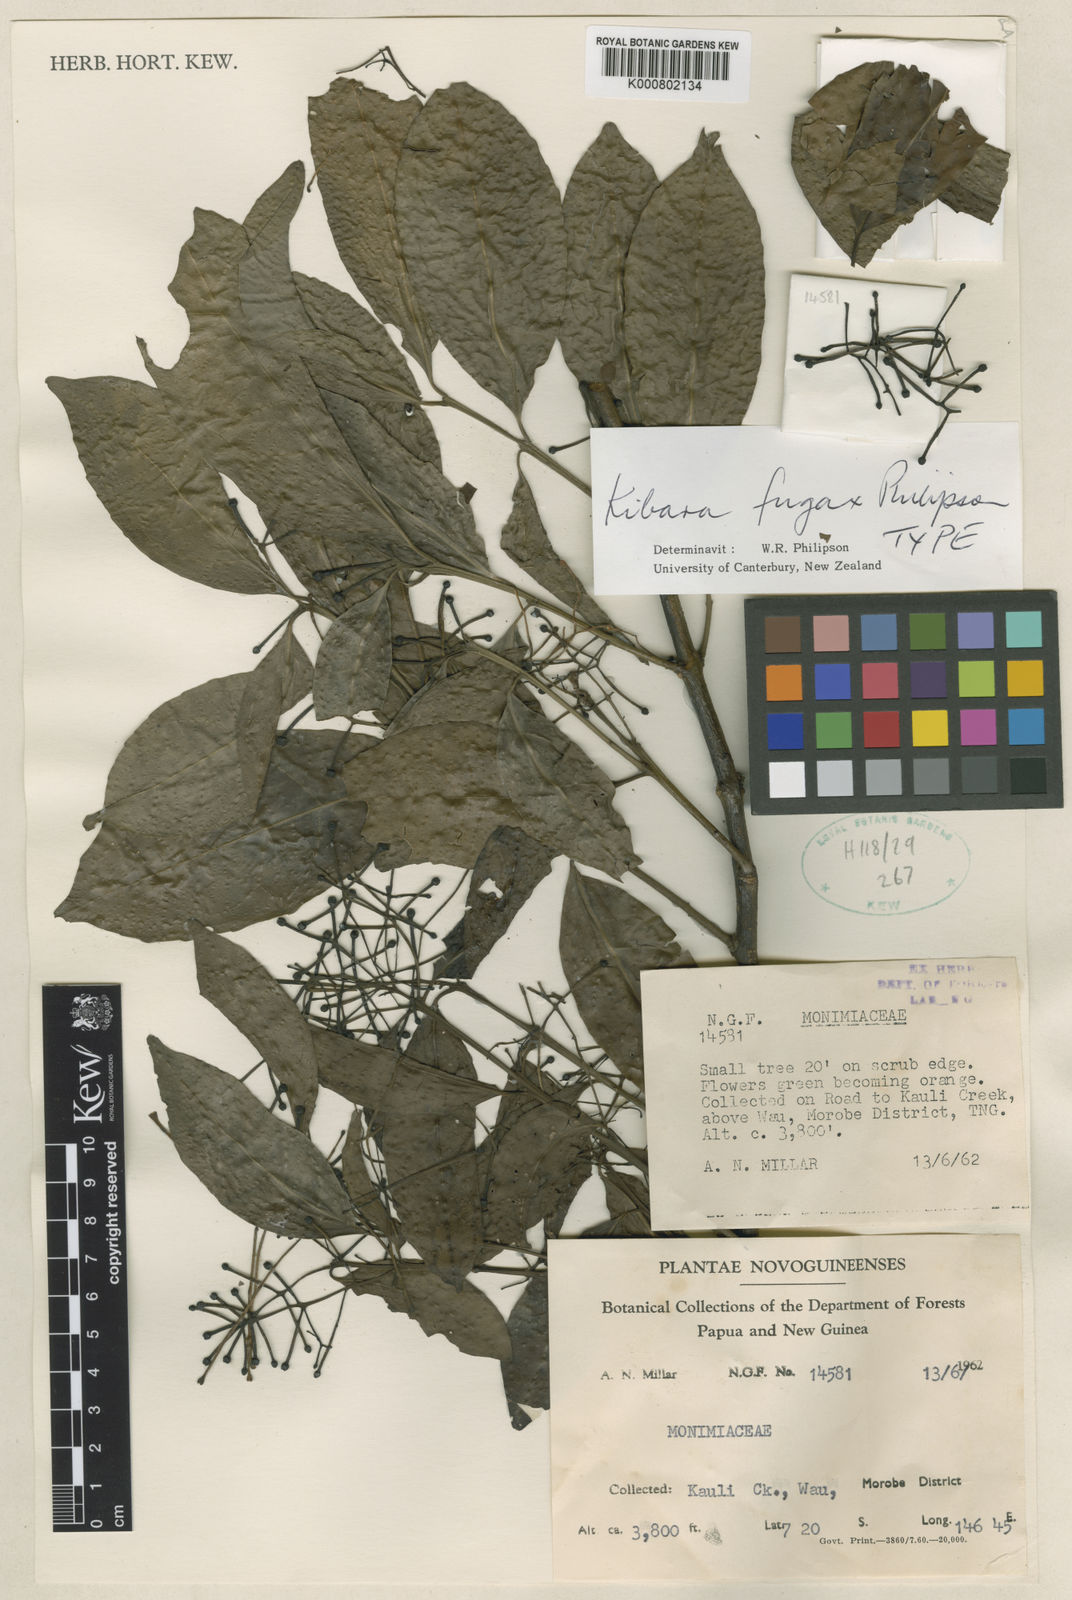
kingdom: Plantae
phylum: Tracheophyta
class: Magnoliopsida
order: Laurales
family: Monimiaceae
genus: Kibara
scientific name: Kibara fugax
